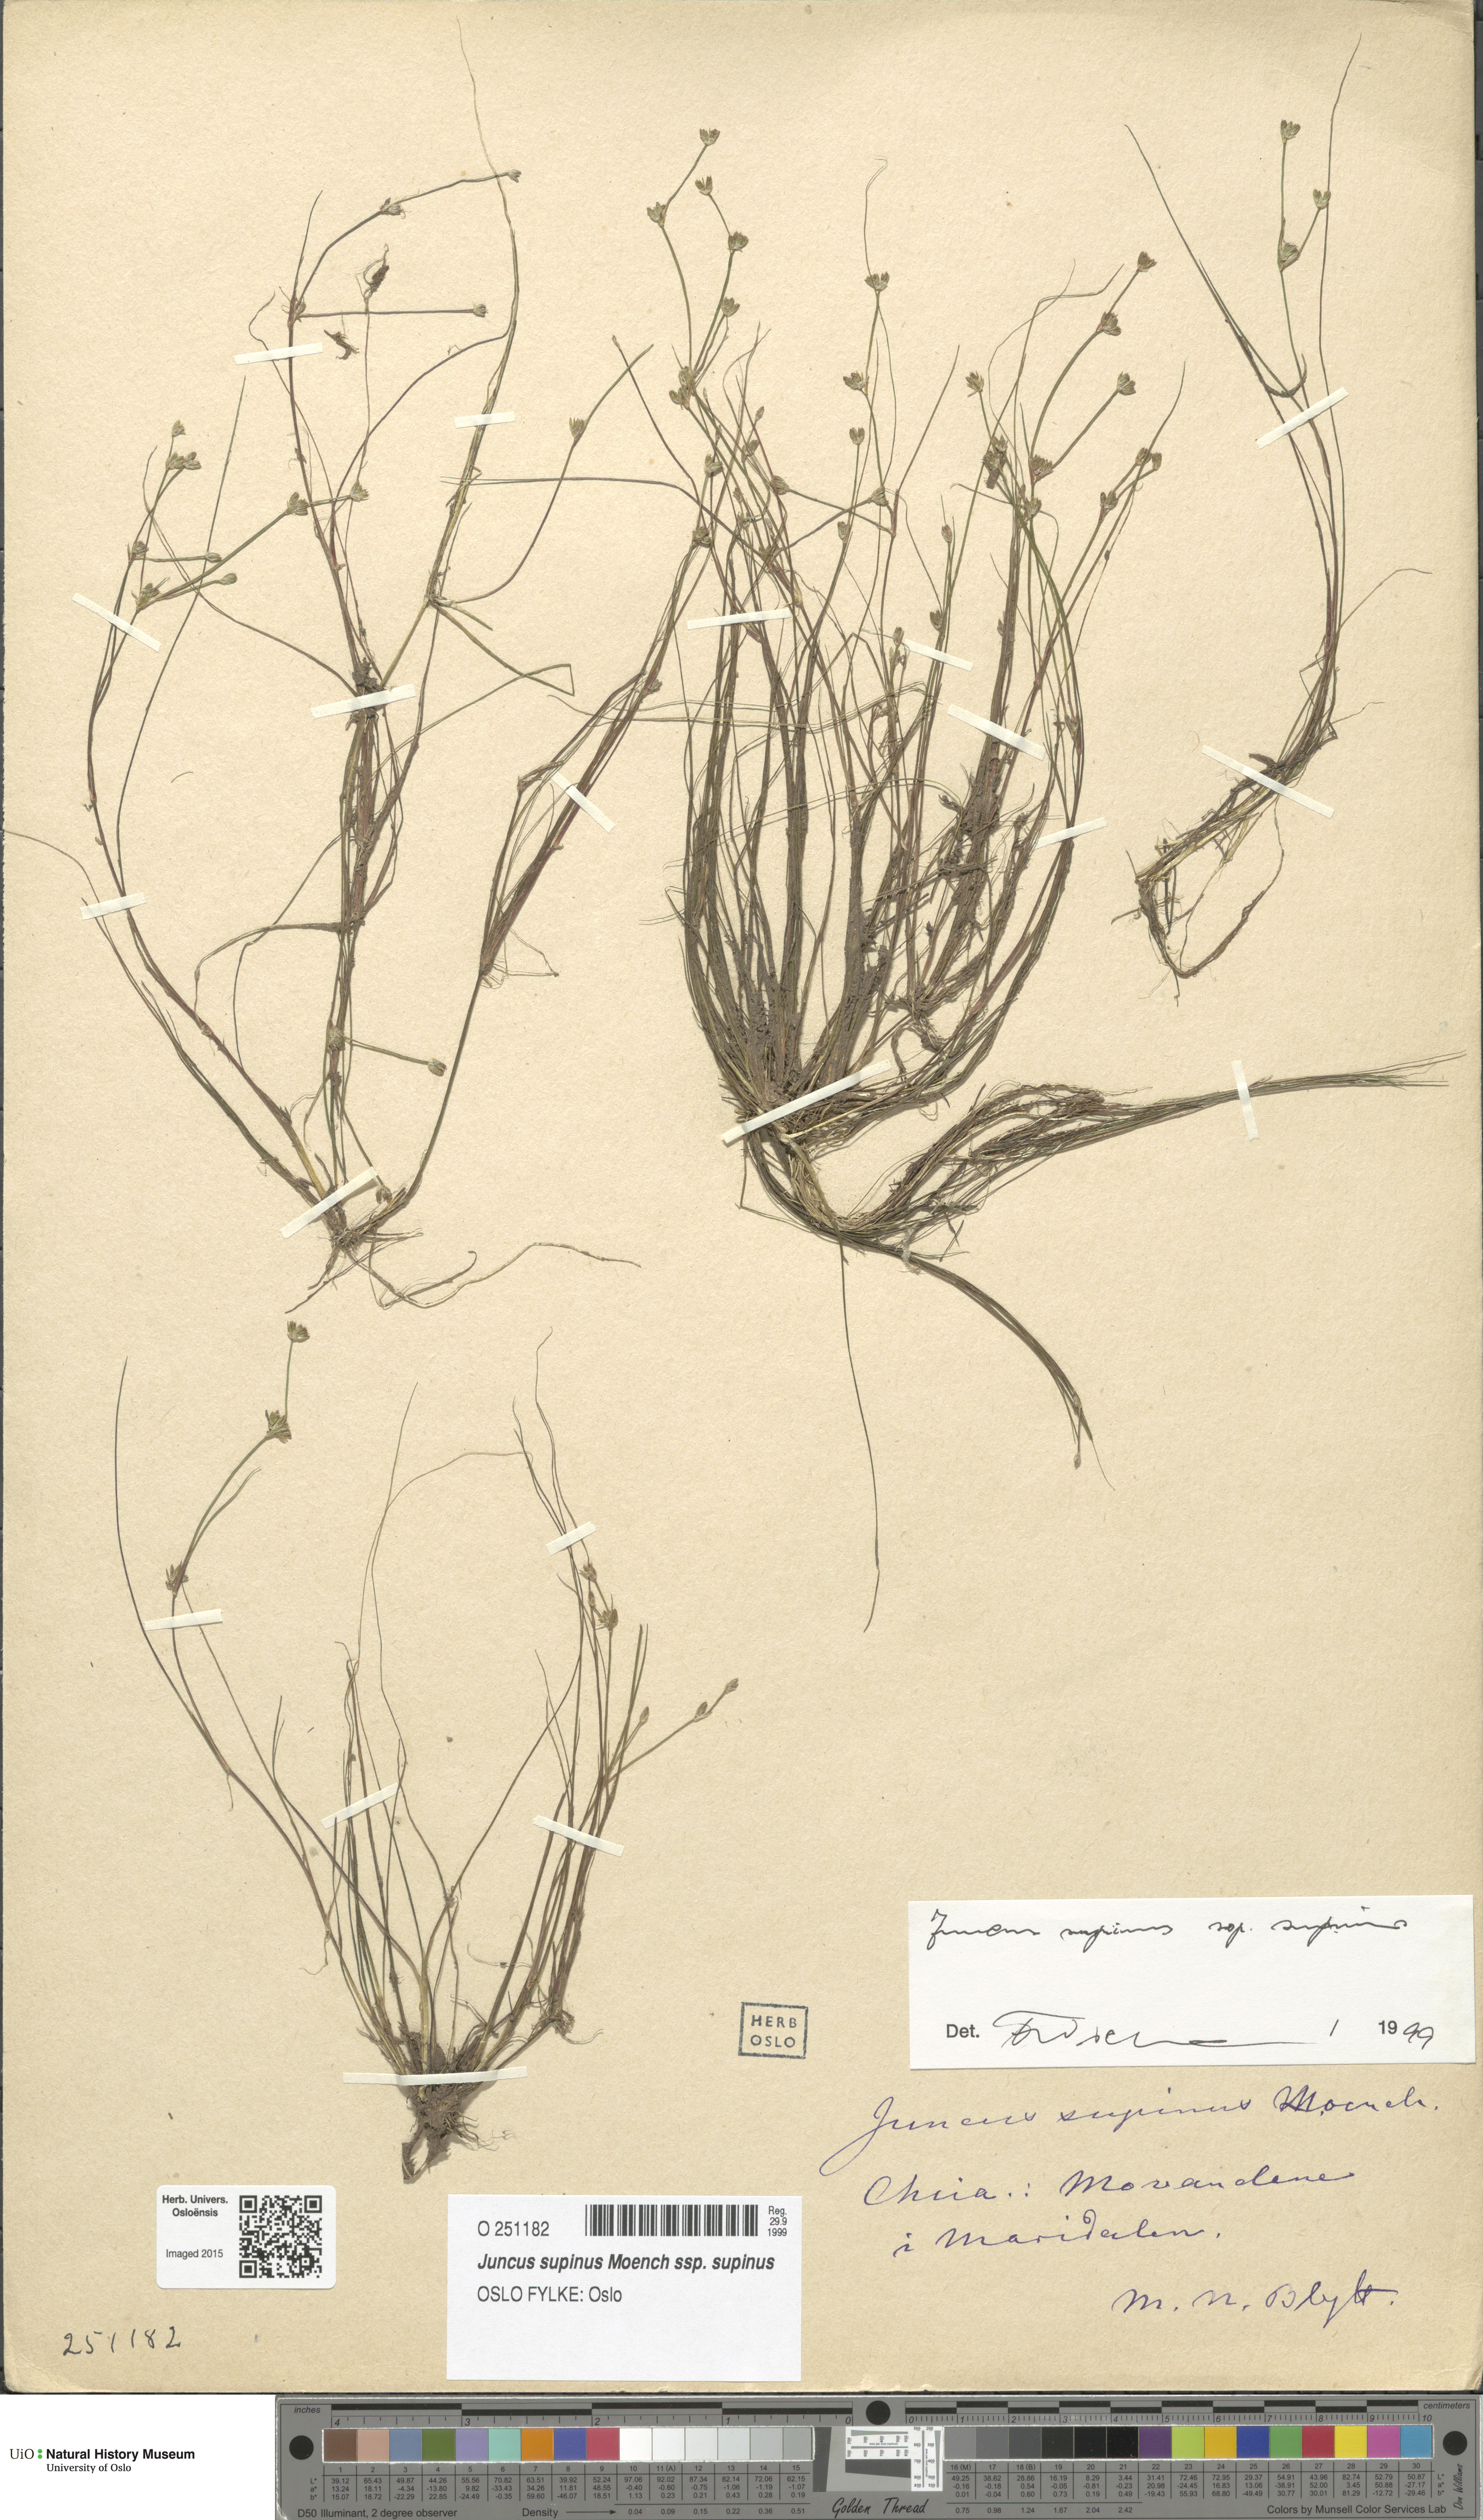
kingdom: Plantae
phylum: Tracheophyta
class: Liliopsida
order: Poales
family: Juncaceae
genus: Juncus
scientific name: Juncus bulbosus
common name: Bulbous rush
